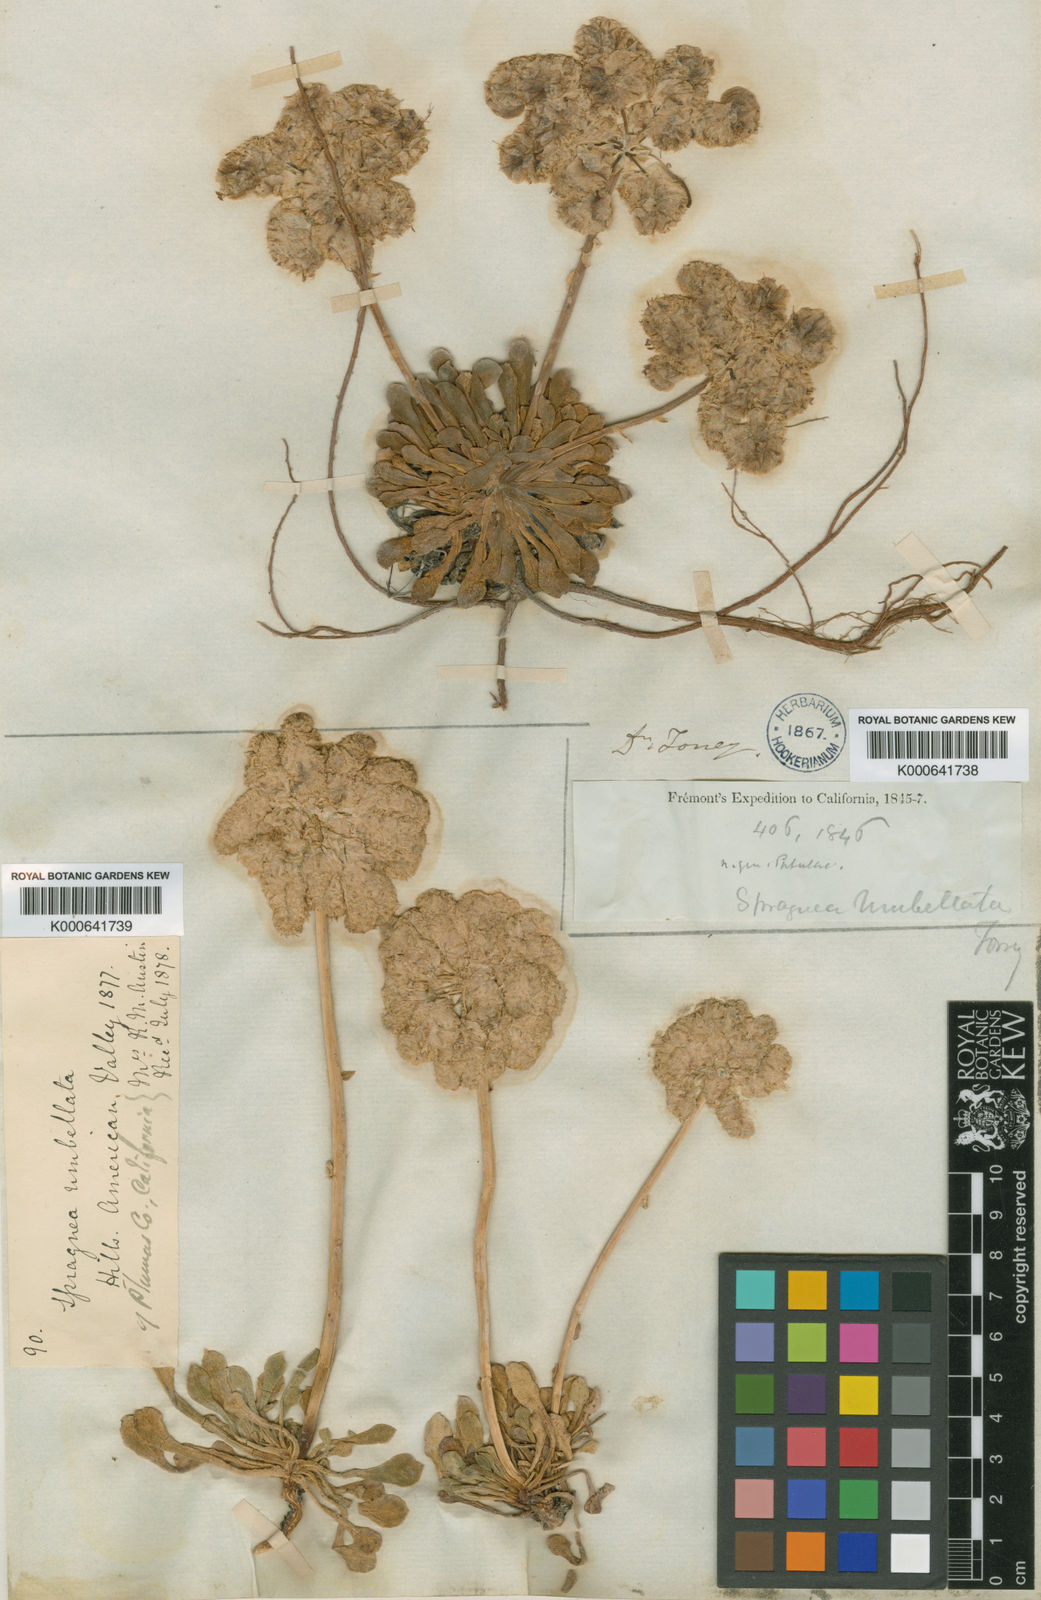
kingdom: Plantae
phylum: Tracheophyta
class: Magnoliopsida
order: Caryophyllales
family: Montiaceae
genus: Calyptridium
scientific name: Calyptridium umbellatum
